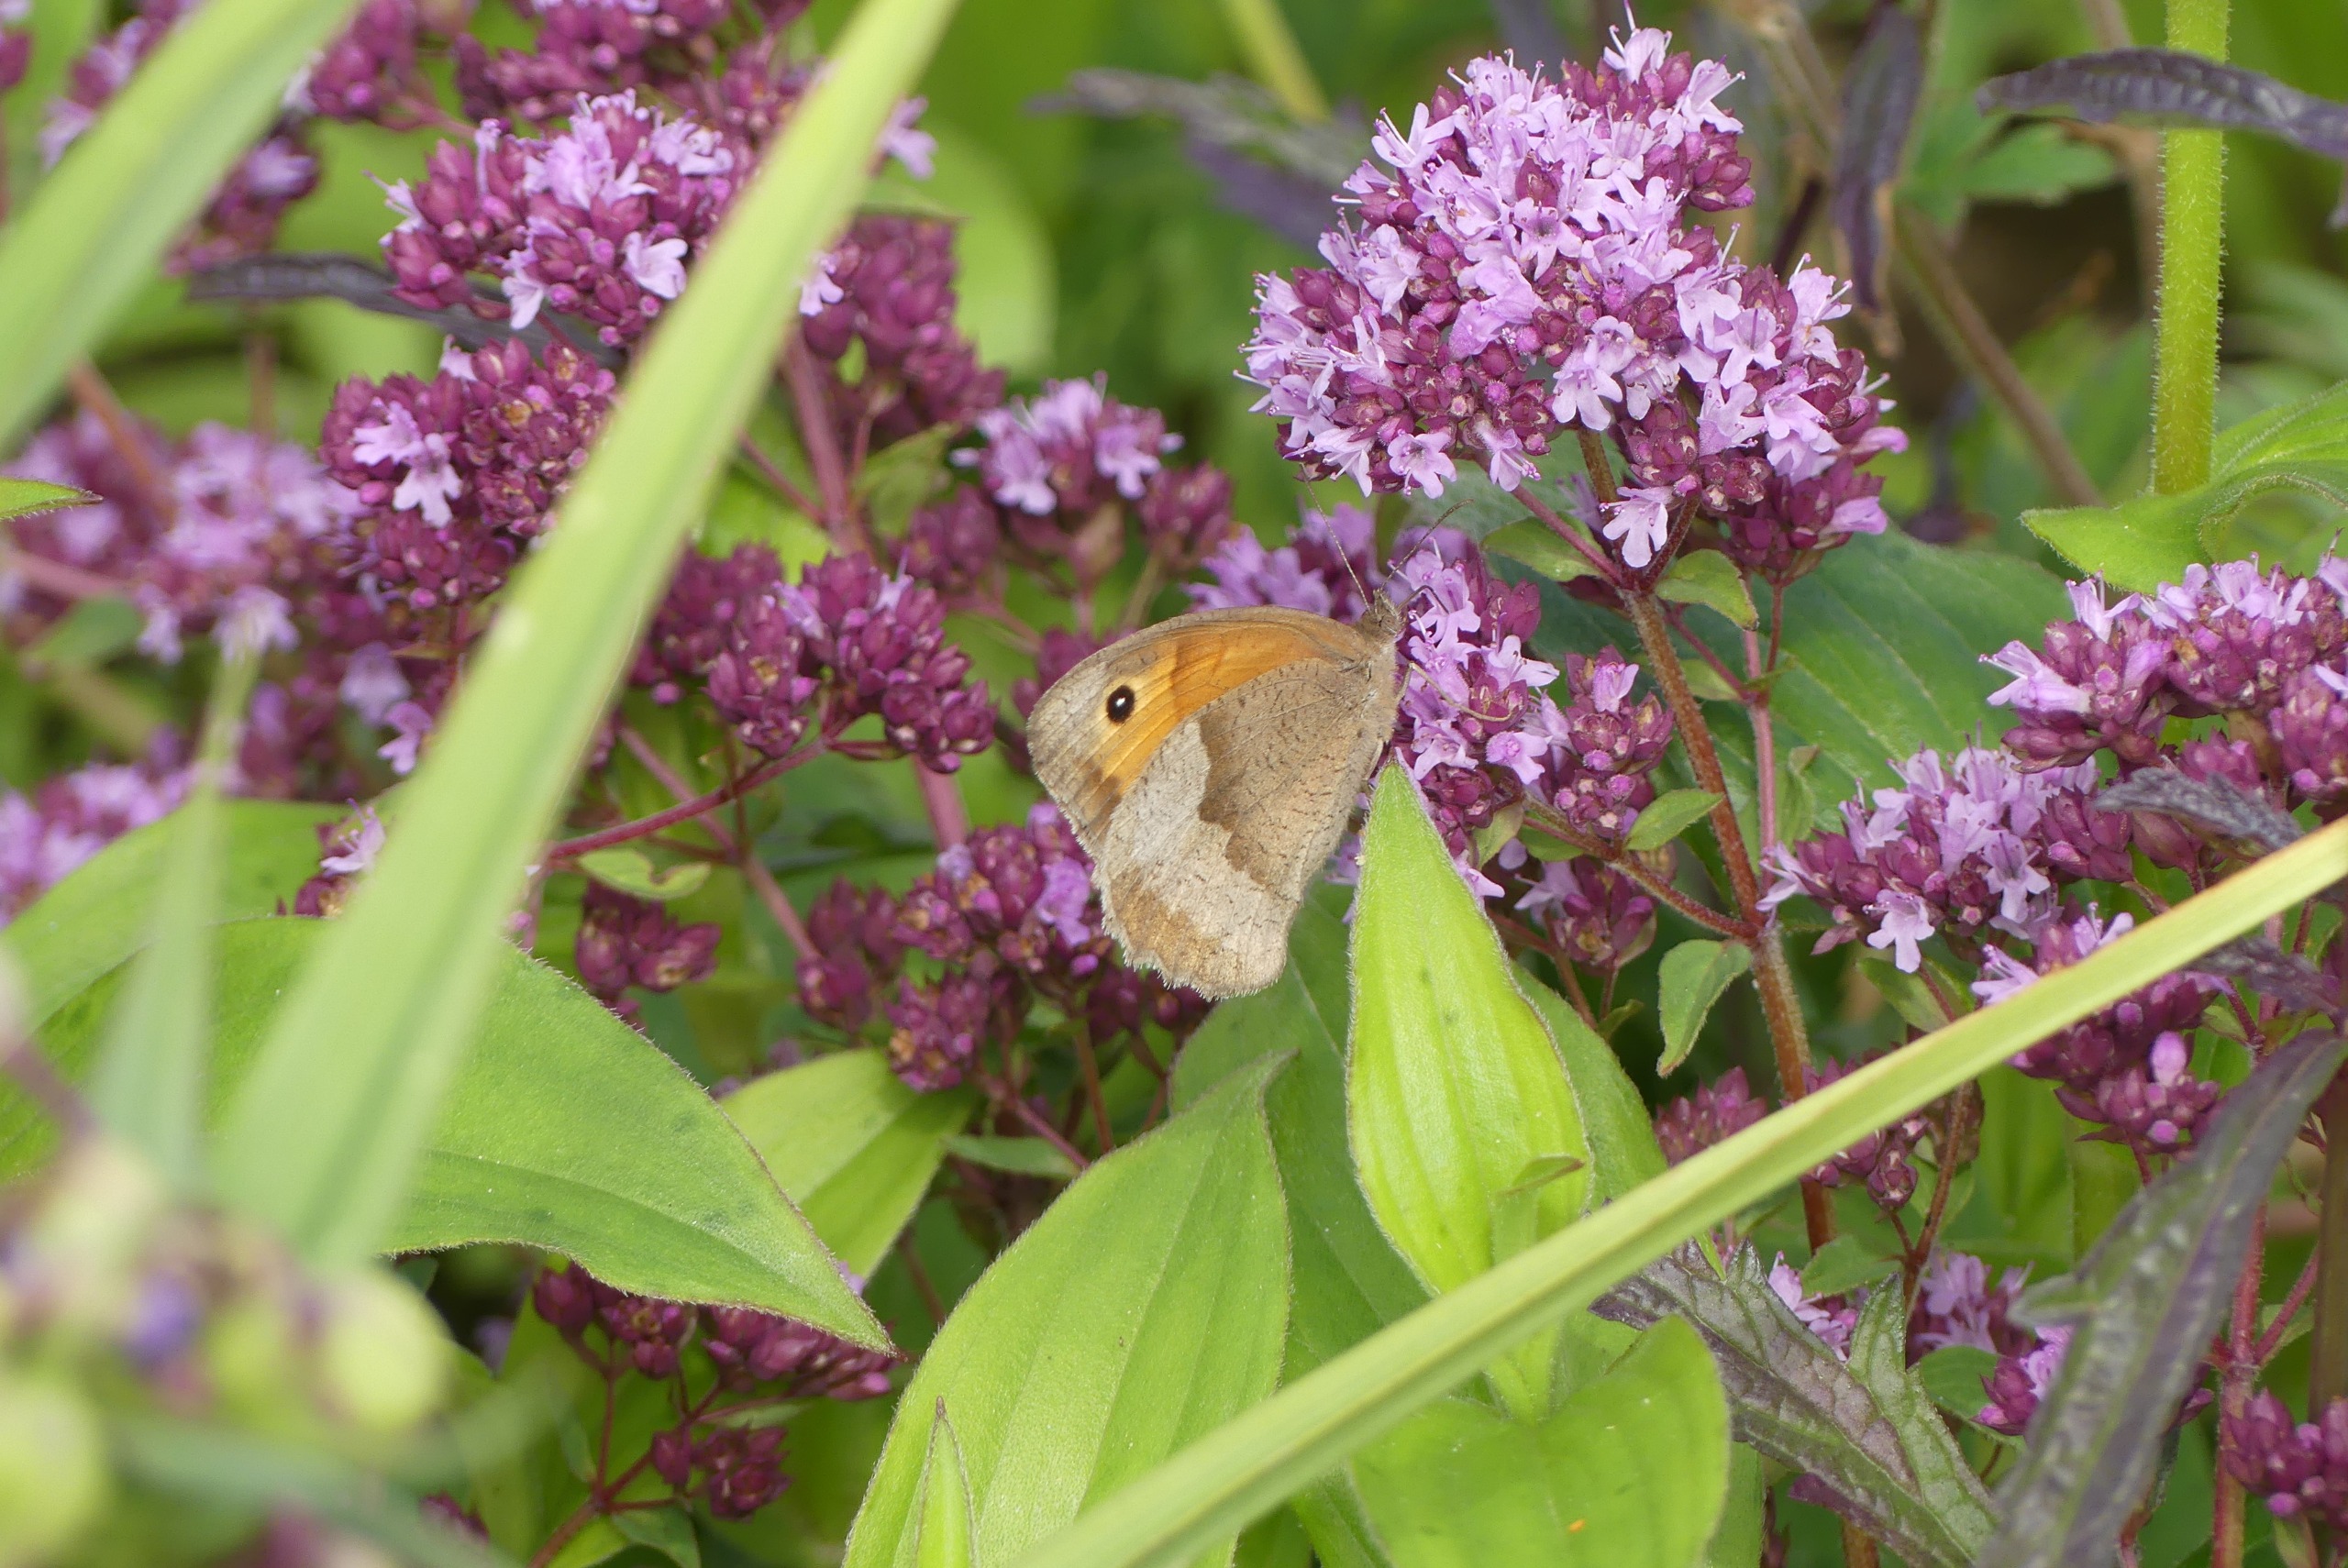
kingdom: Animalia
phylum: Arthropoda
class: Insecta
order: Lepidoptera
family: Nymphalidae
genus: Maniola
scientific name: Maniola jurtina
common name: Græsrandøje
